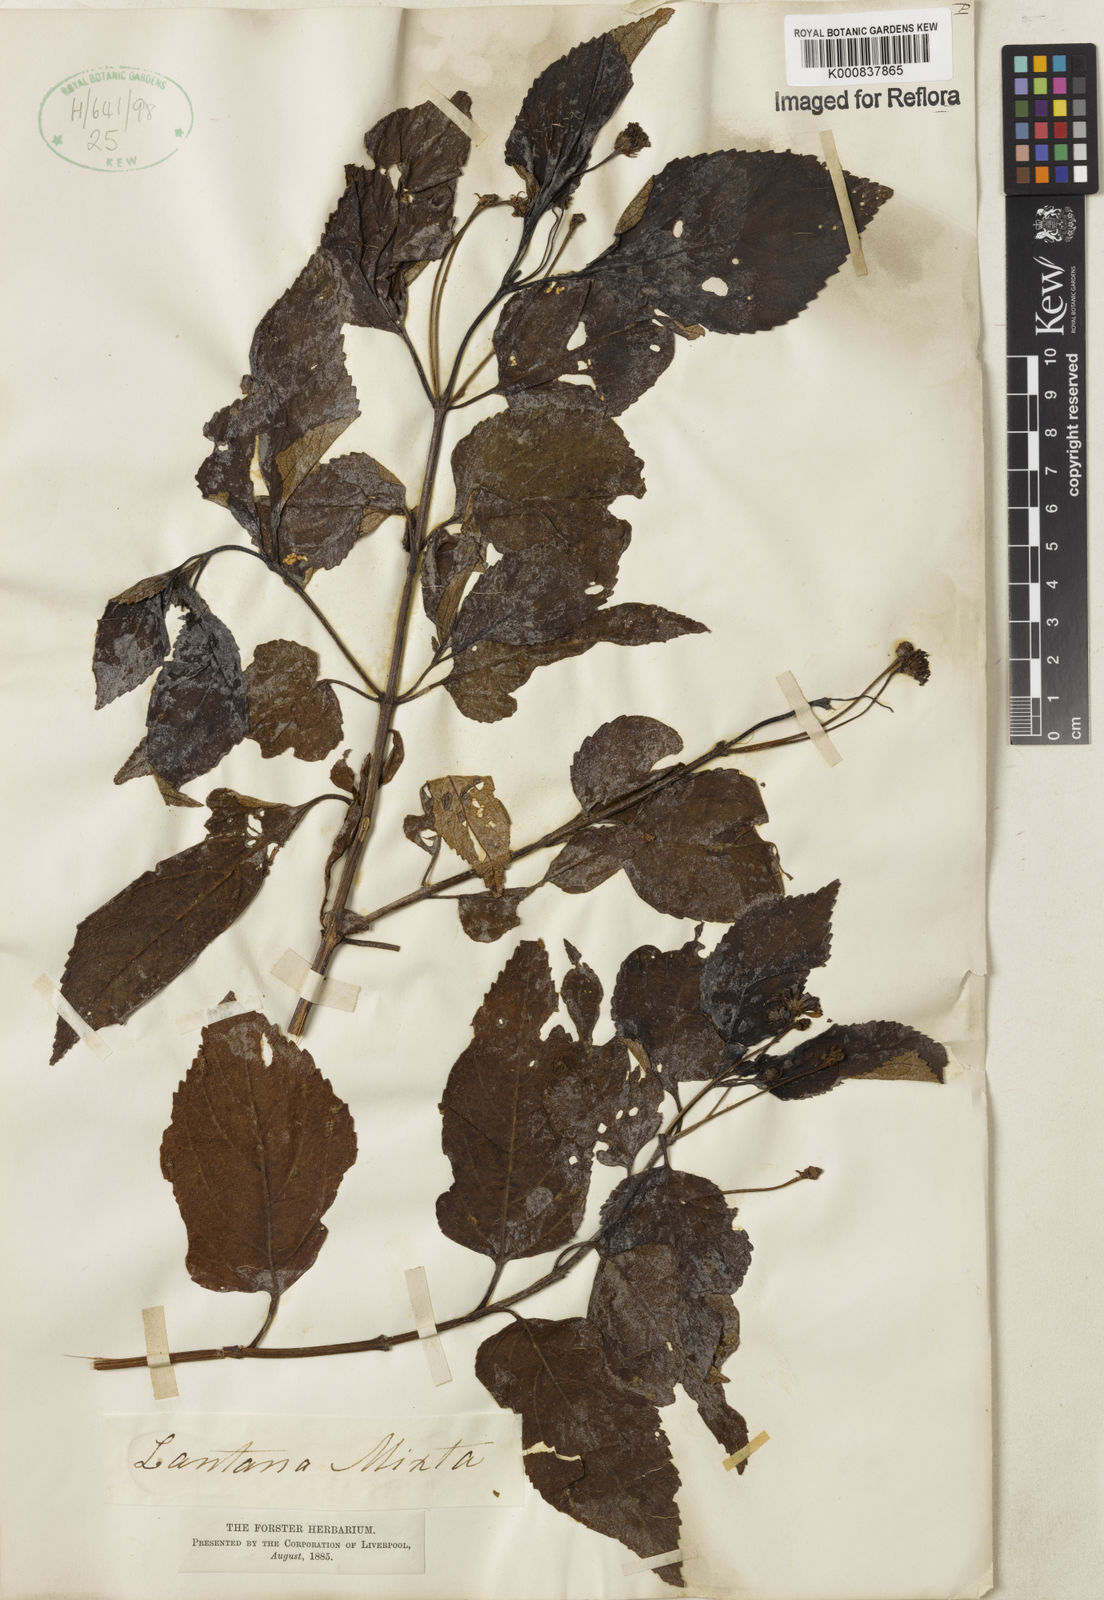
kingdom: Plantae
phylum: Tracheophyta
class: Magnoliopsida
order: Lamiales
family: Verbenaceae
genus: Lantana
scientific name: Lantana horrida
